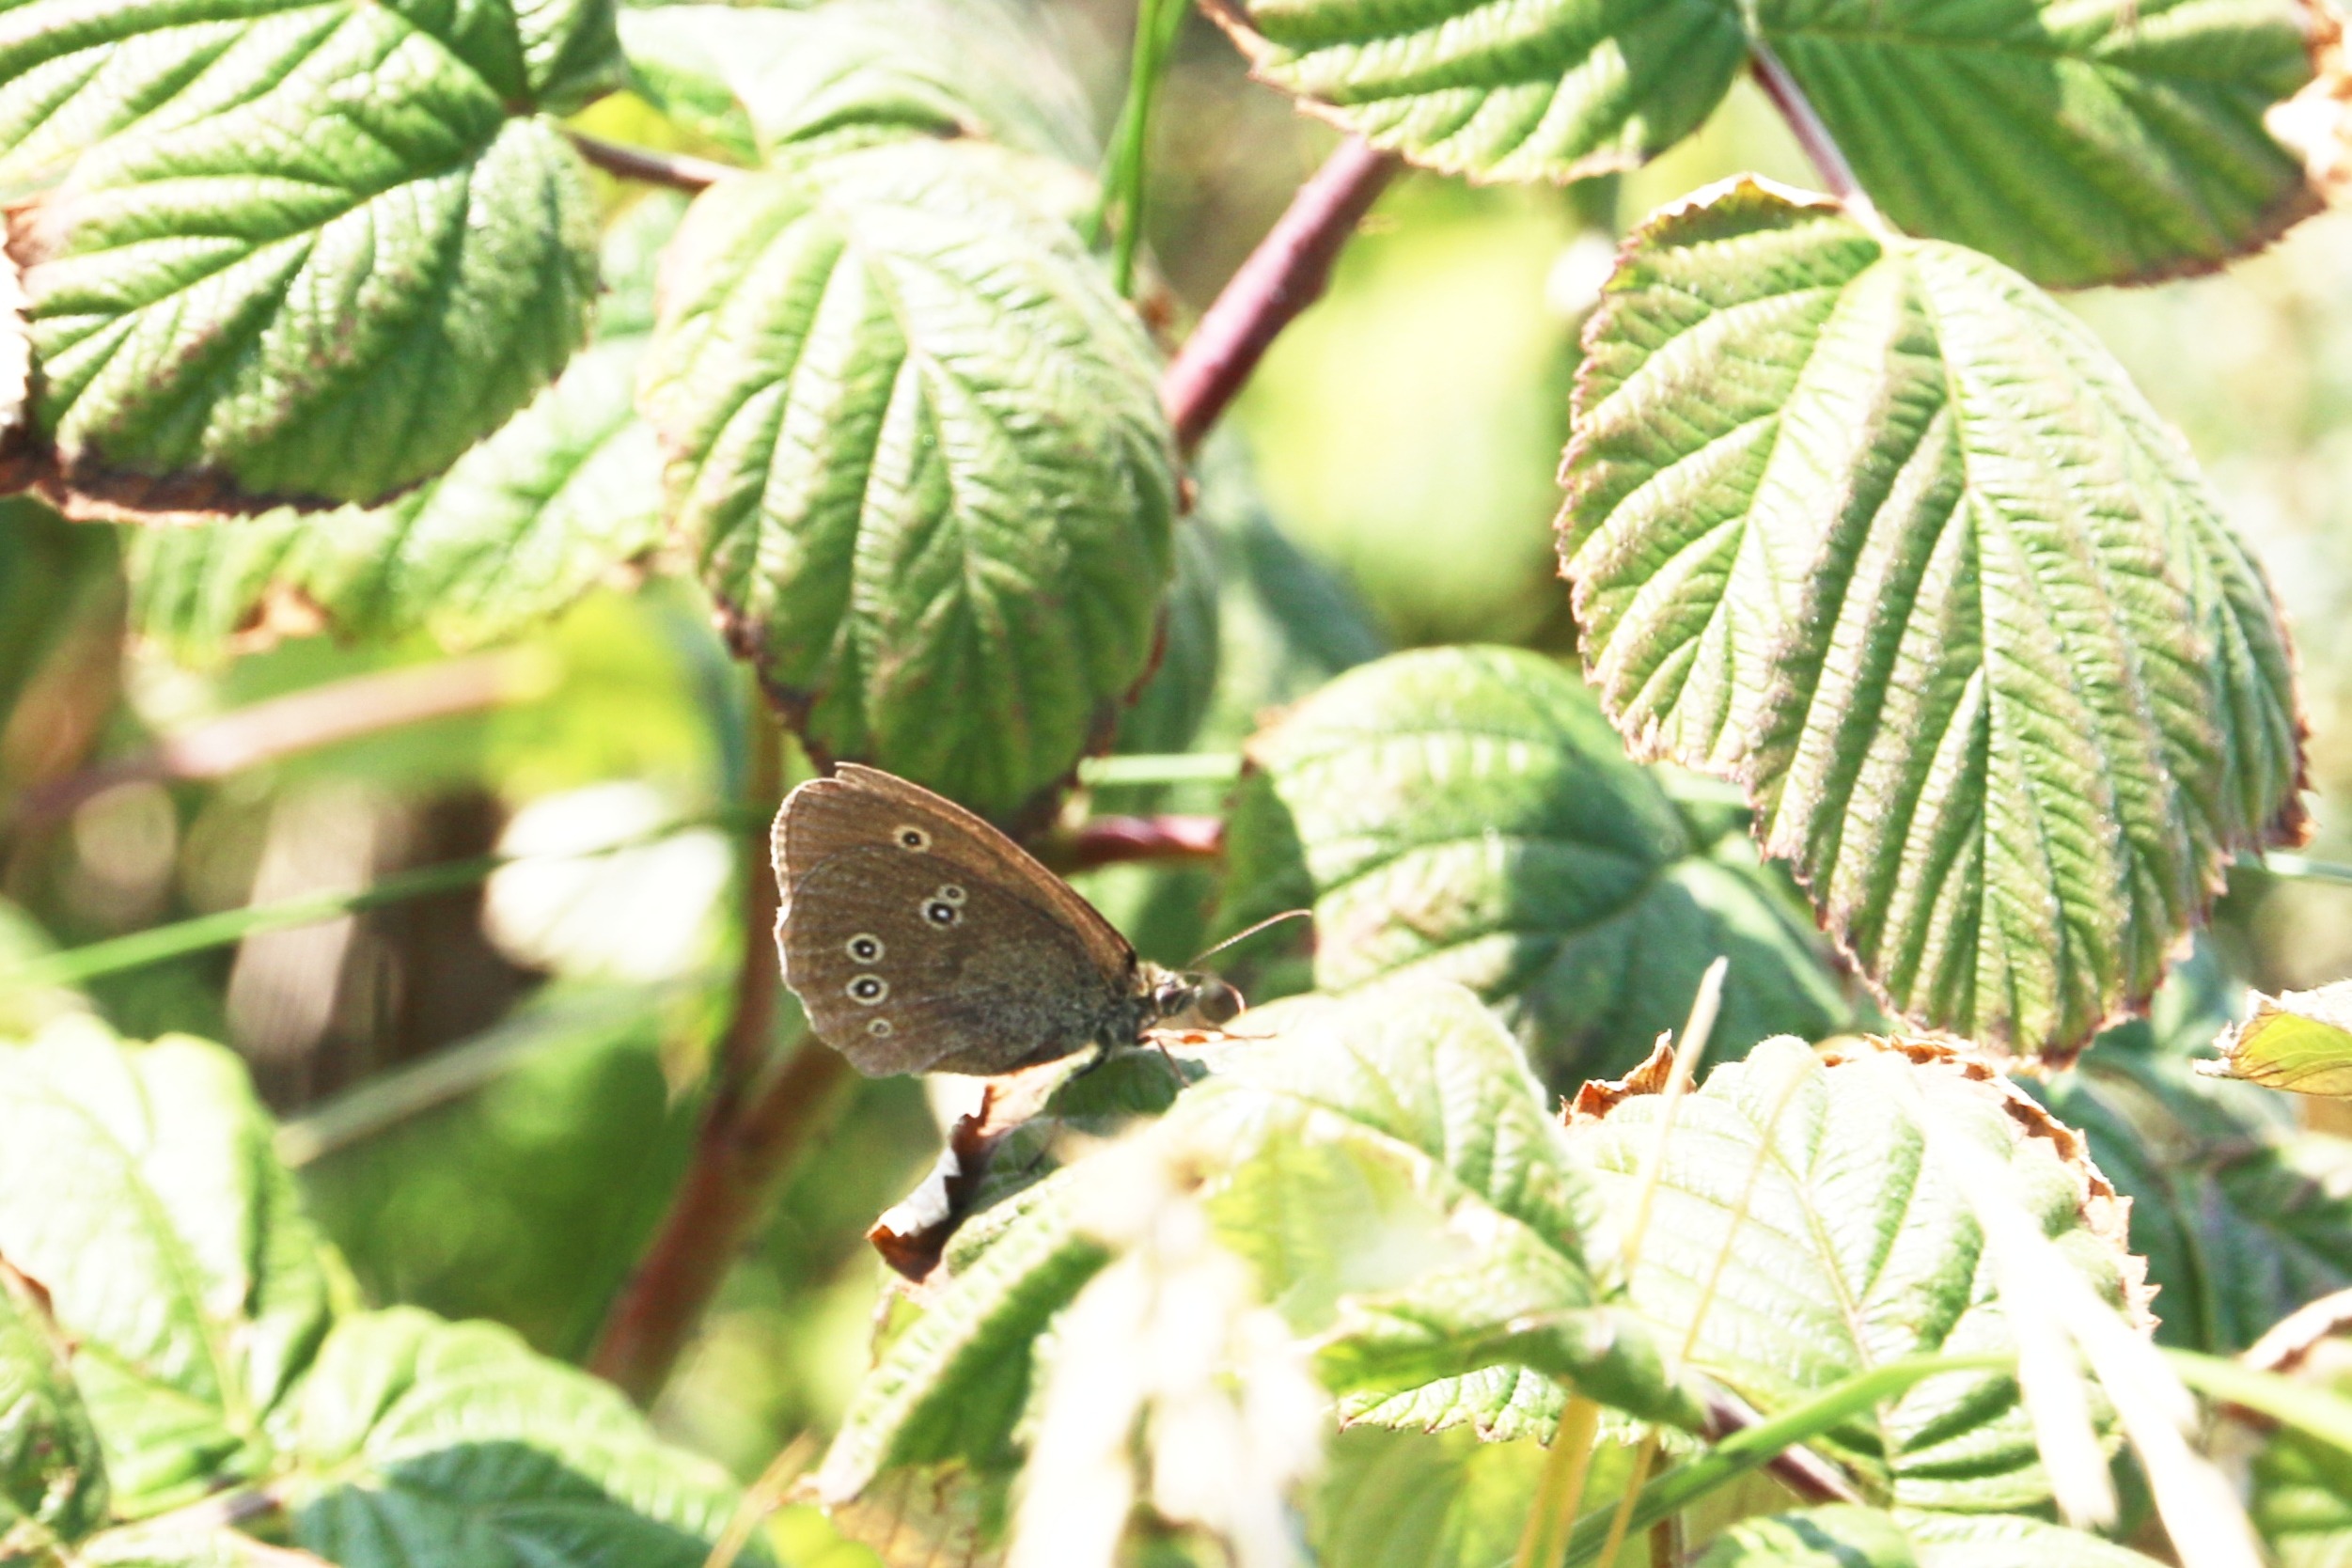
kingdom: Animalia
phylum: Arthropoda
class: Insecta
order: Lepidoptera
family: Nymphalidae
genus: Aphantopus
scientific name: Aphantopus hyperantus
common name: Engrandøje
